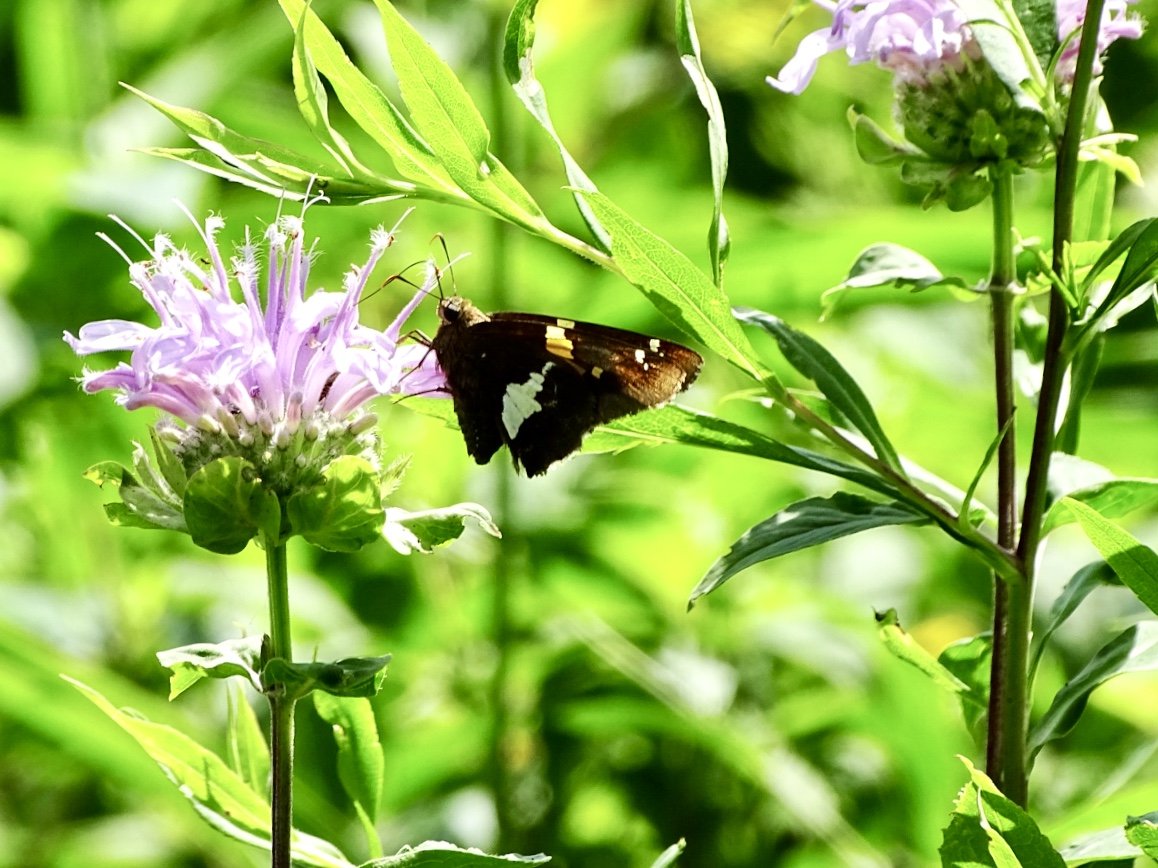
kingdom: Animalia
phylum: Arthropoda
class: Insecta
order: Lepidoptera
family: Hesperiidae
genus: Epargyreus
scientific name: Epargyreus clarus
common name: Silver-spotted Skipper
